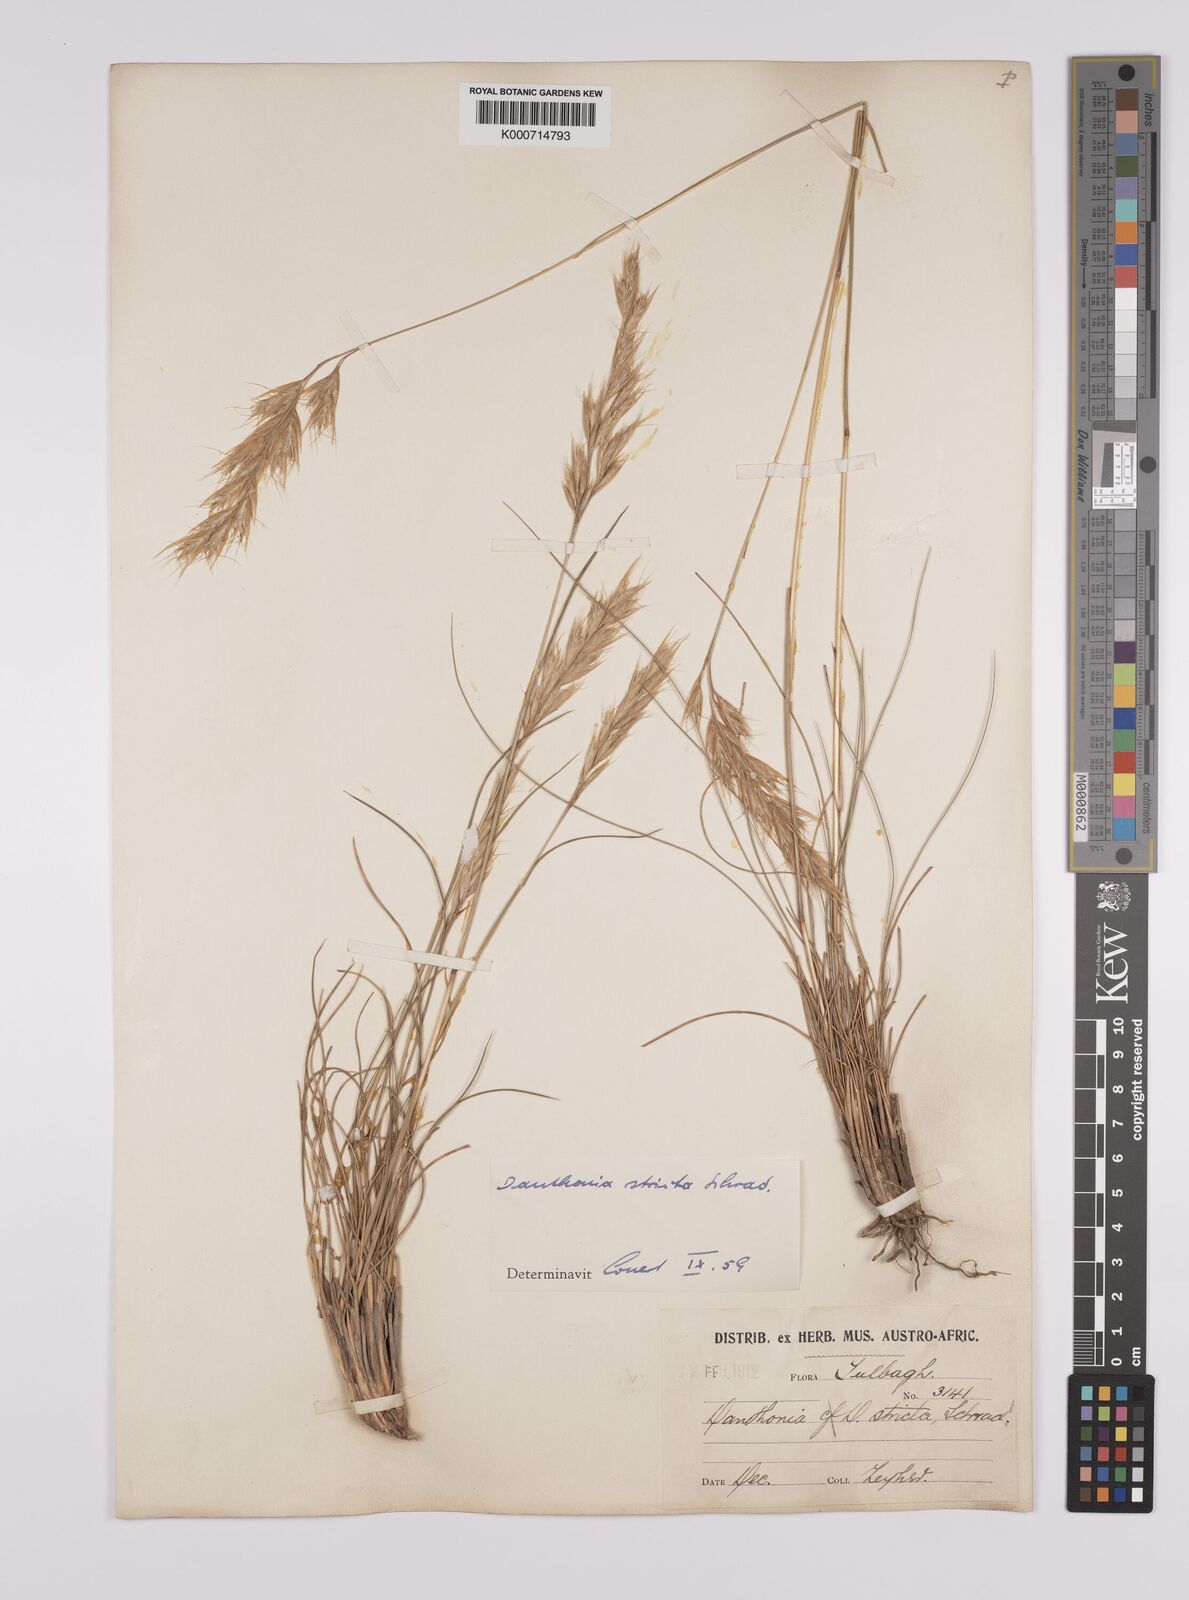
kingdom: Plantae
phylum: Tracheophyta
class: Liliopsida
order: Poales
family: Poaceae
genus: Rytidosperma
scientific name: Rytidosperma
